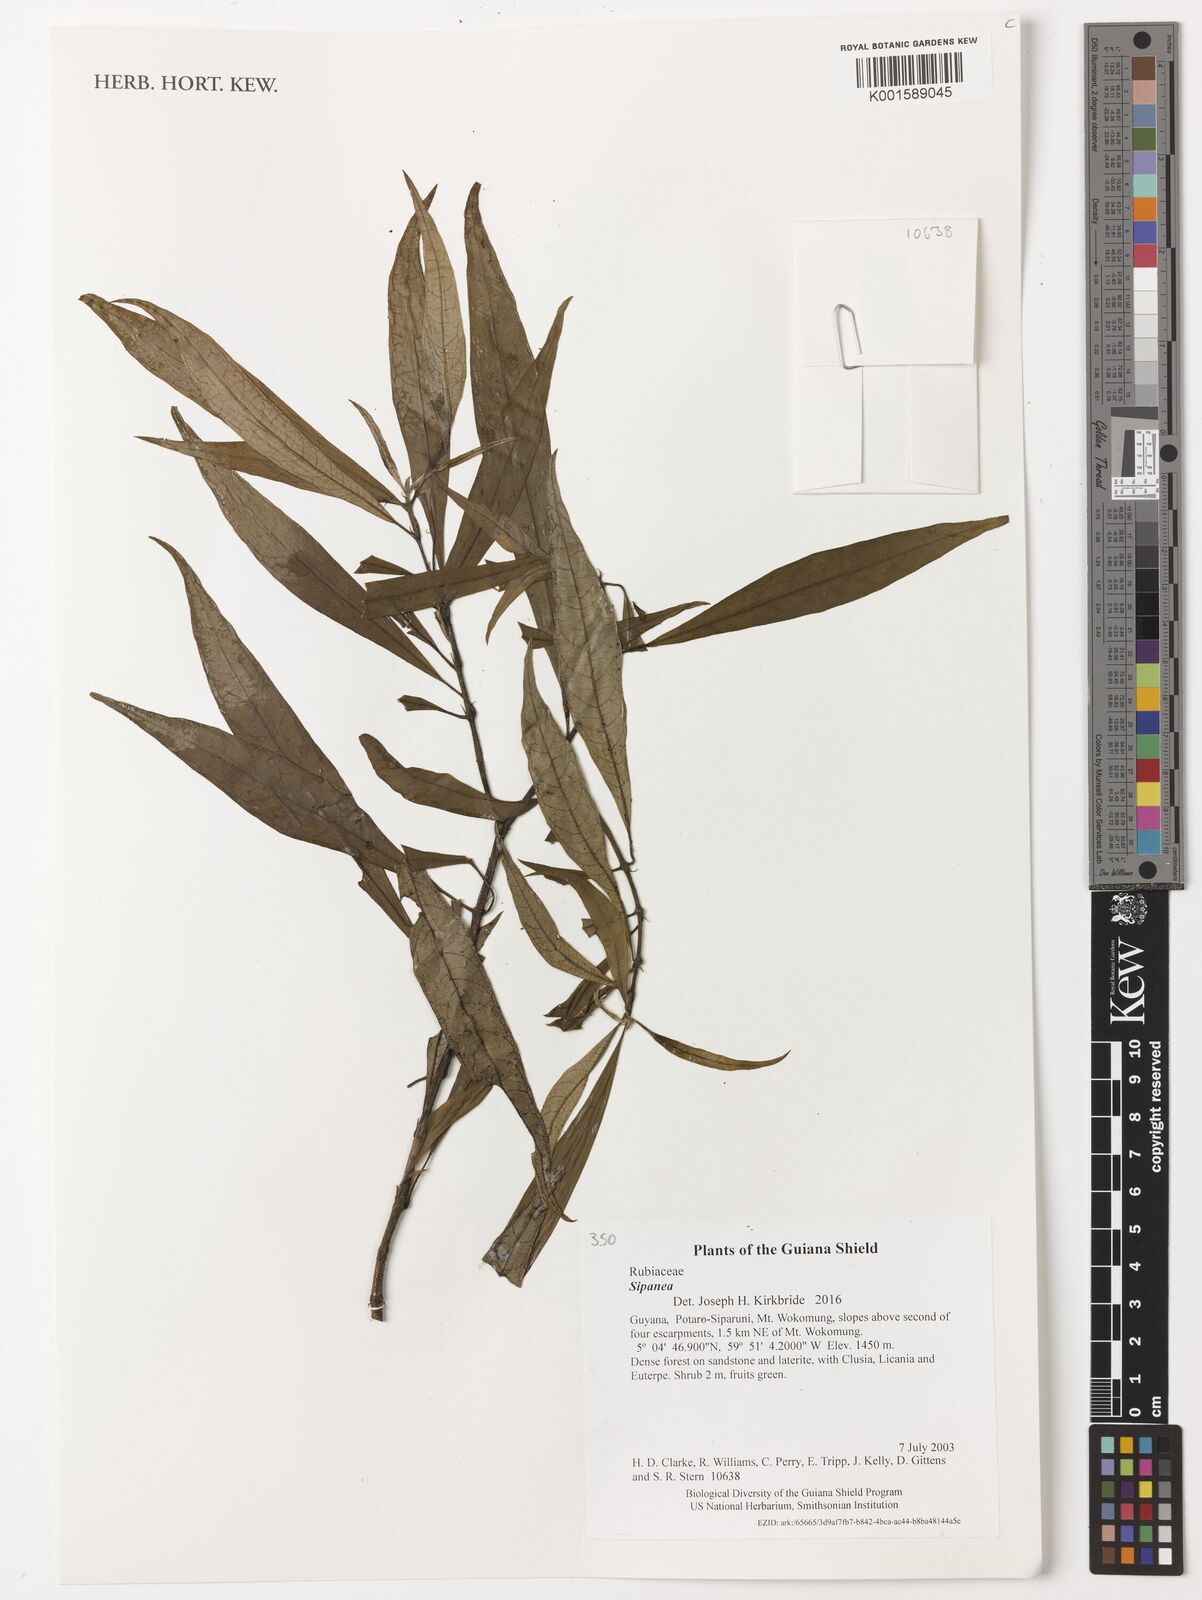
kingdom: Plantae
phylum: Tracheophyta
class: Magnoliopsida
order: Gentianales
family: Rubiaceae
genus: Sipanea
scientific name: Sipanea
